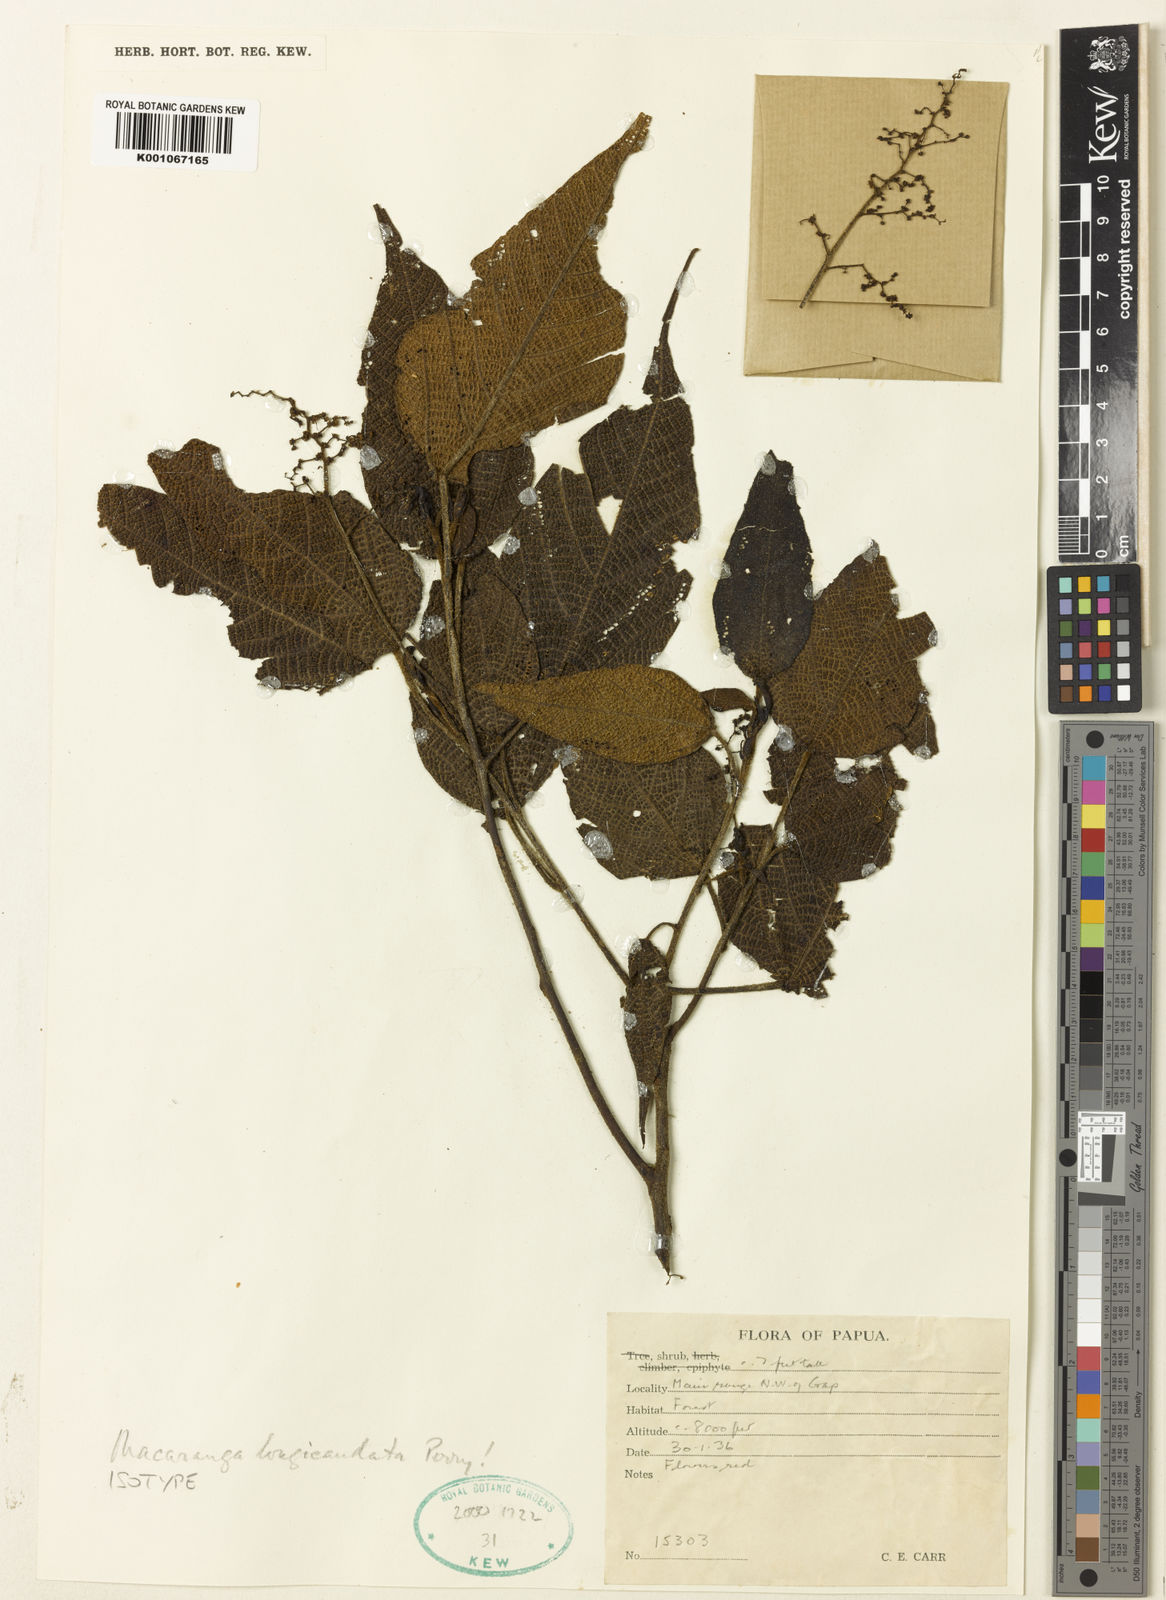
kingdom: Plantae
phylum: Tracheophyta
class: Magnoliopsida
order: Malpighiales
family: Euphorbiaceae
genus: Macaranga
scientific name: Macaranga longicaudata
